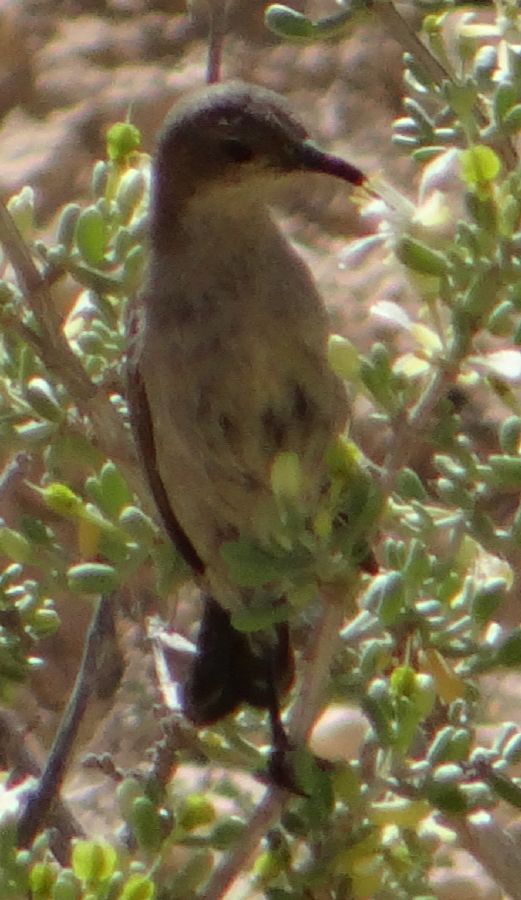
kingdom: Animalia
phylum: Chordata
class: Aves
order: Passeriformes
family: Nectariniidae
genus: Cinnyris
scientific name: Cinnyris osea
